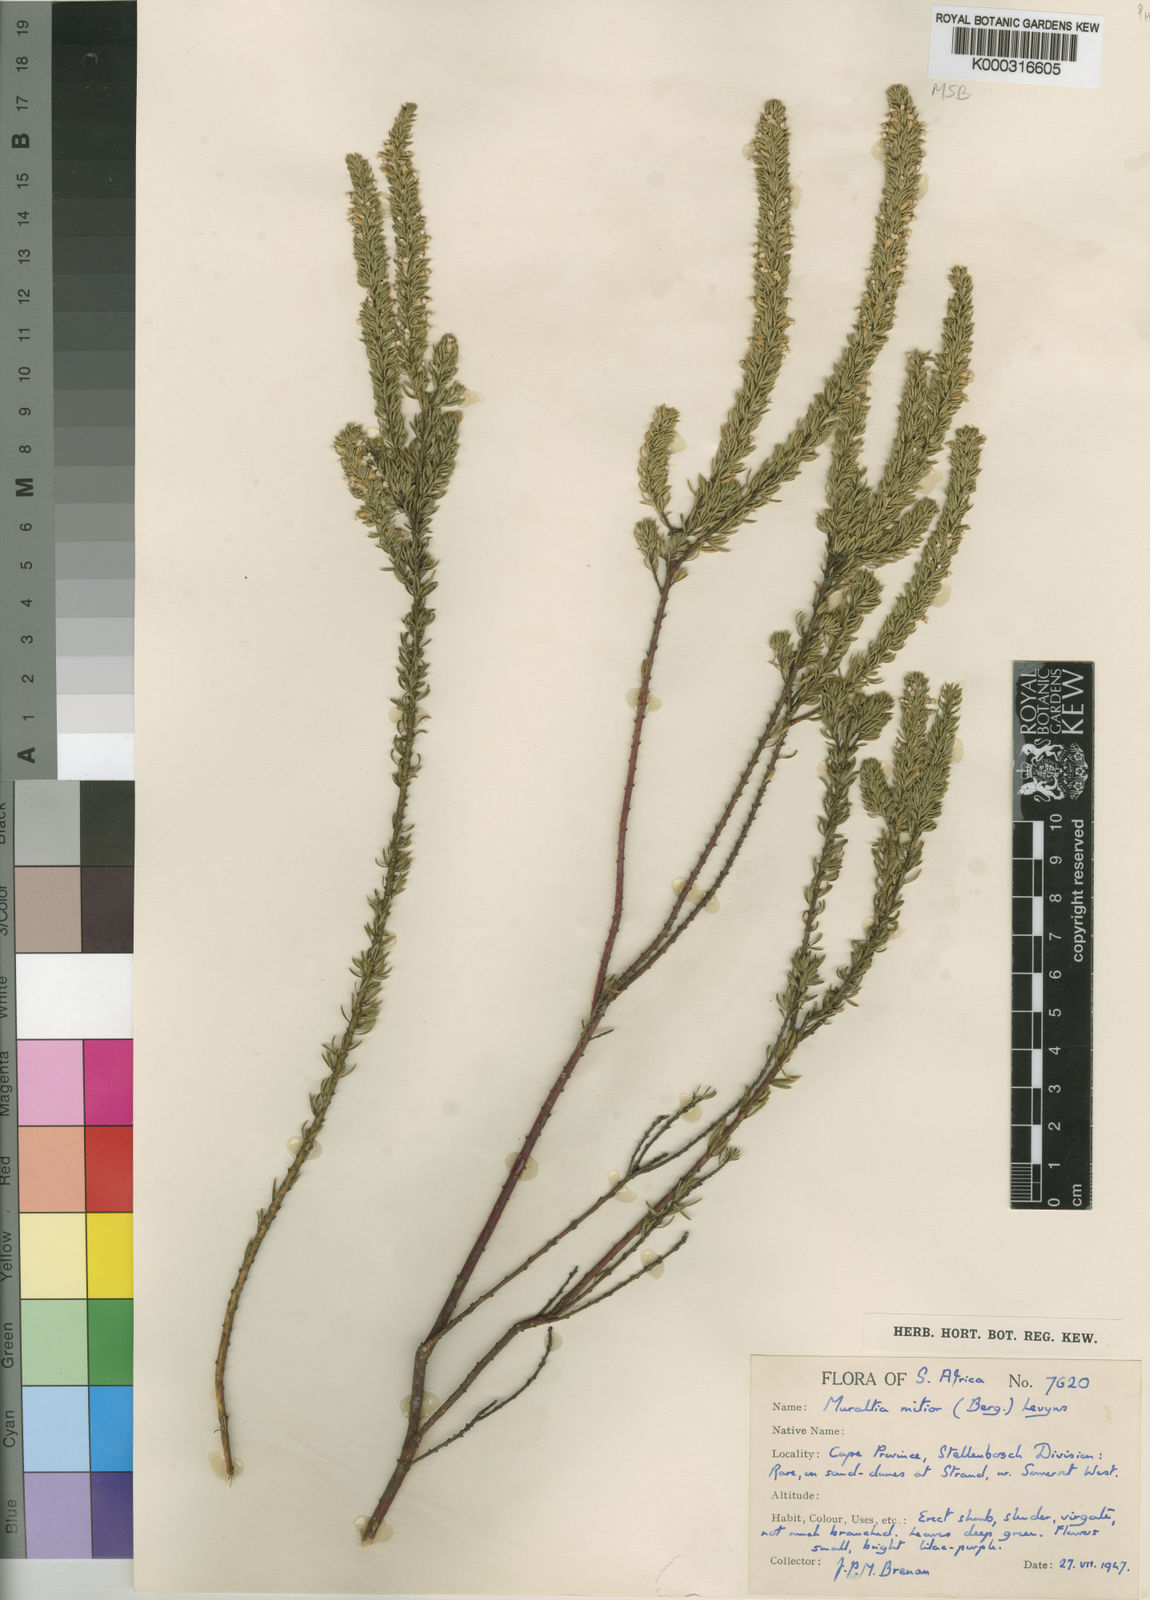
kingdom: Plantae
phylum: Tracheophyta
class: Magnoliopsida
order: Fabales
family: Polygalaceae
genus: Muraltia
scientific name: Muraltia
